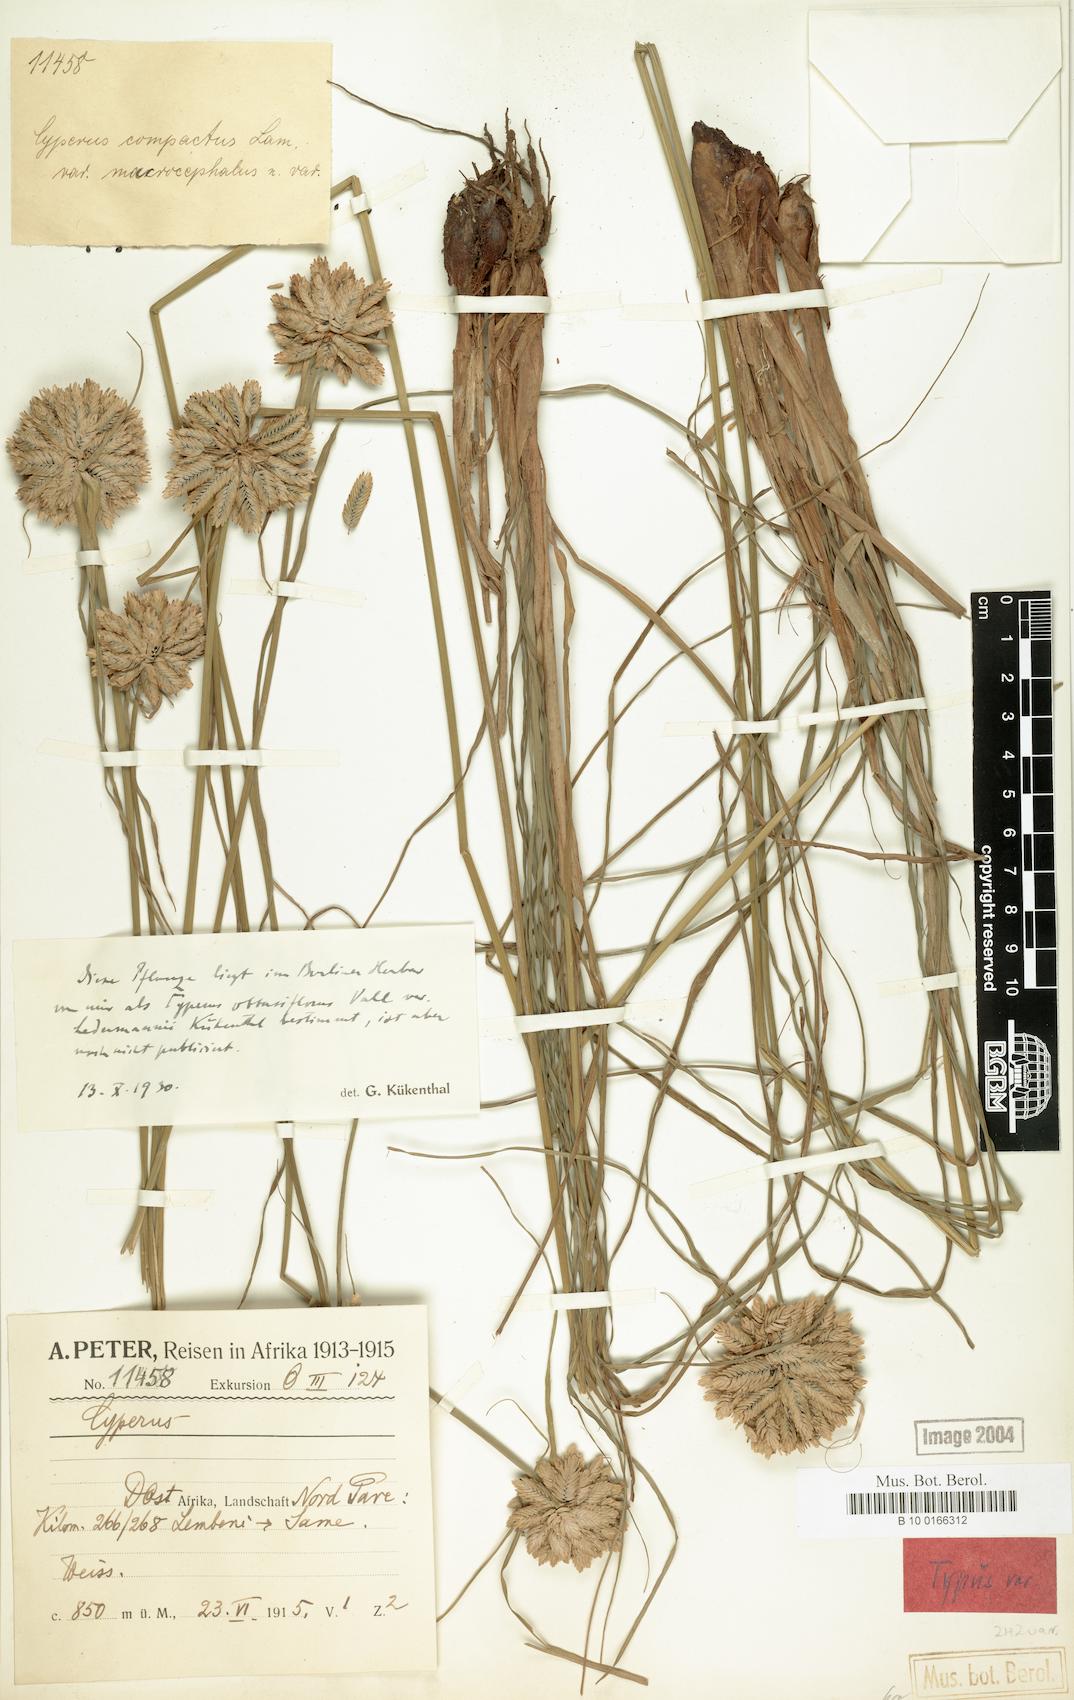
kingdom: Plantae
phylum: Tracheophyta
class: Liliopsida
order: Poales
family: Cyperaceae
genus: Cyperus
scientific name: Cyperus niveus
